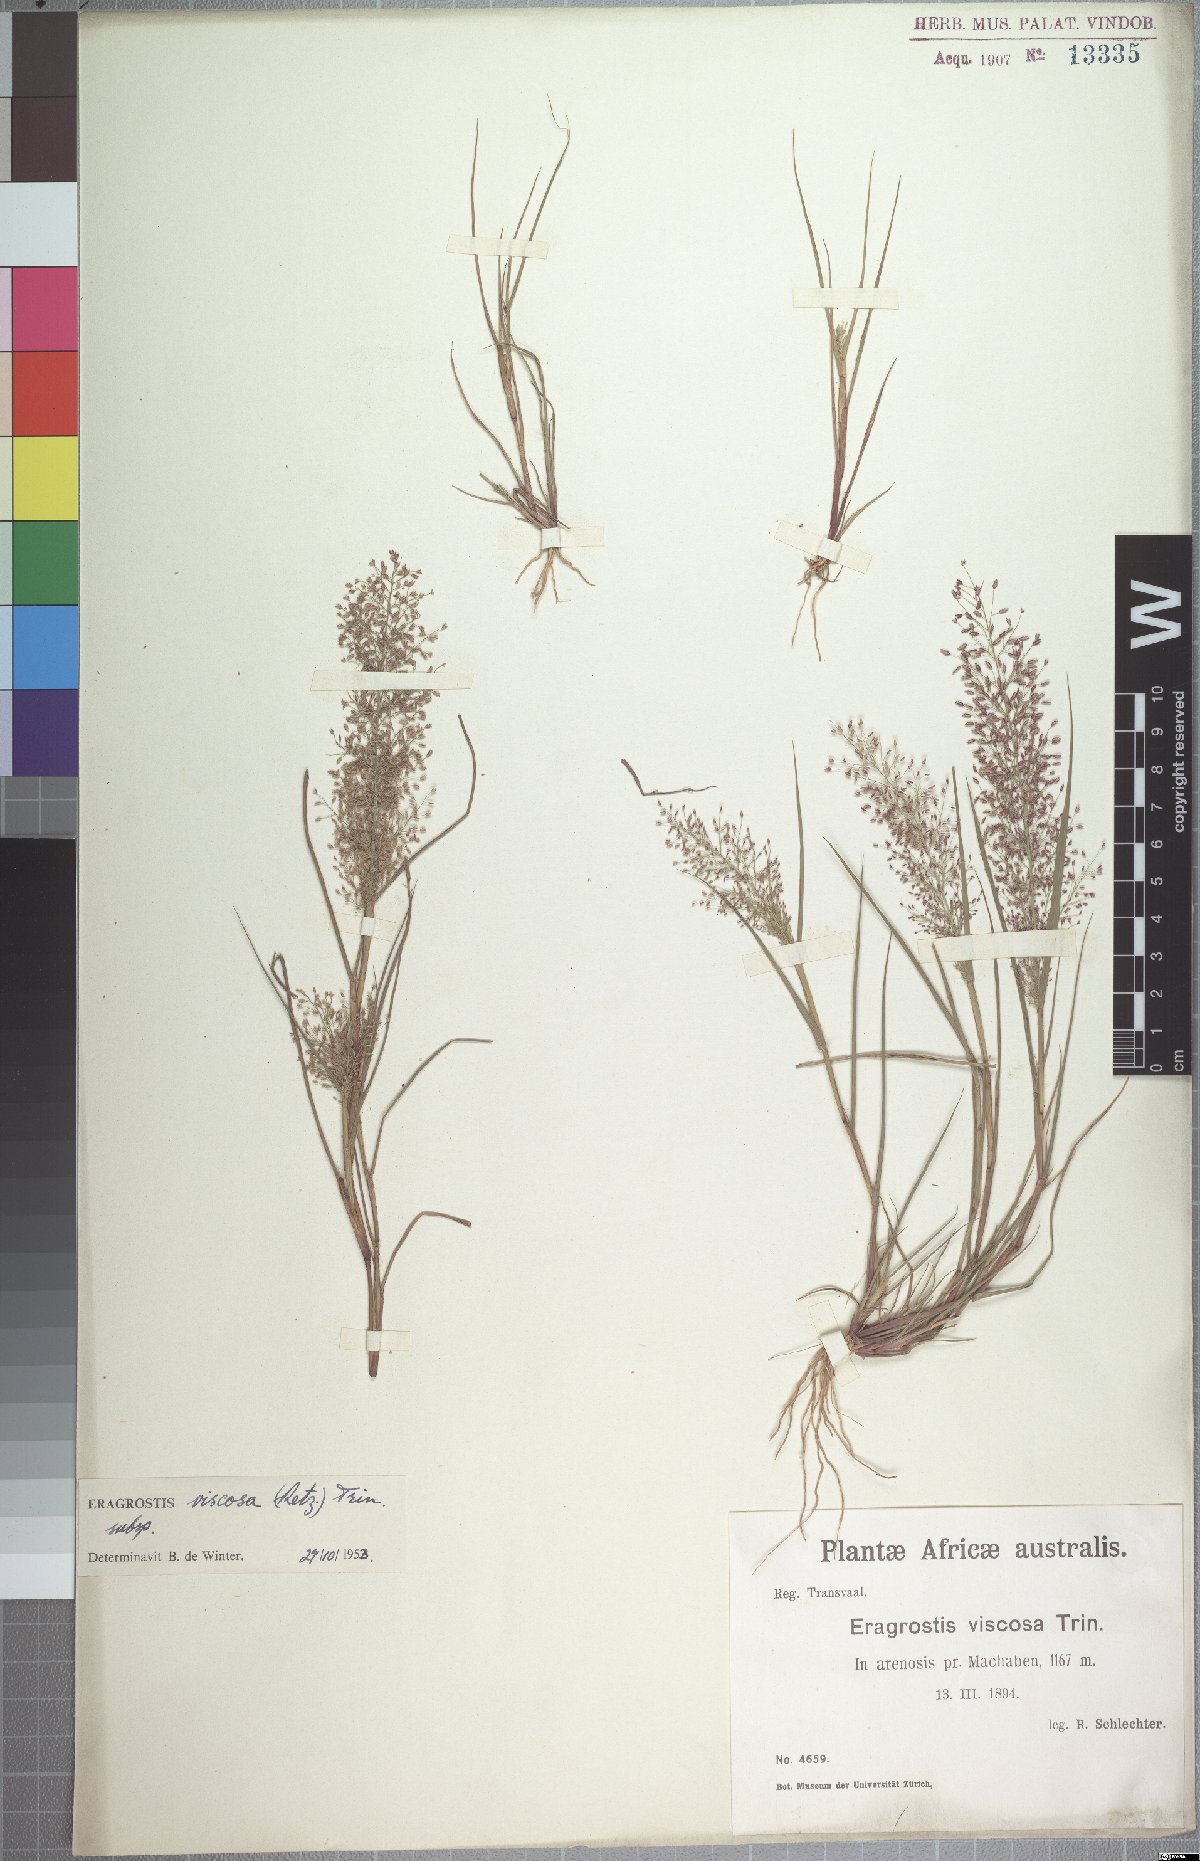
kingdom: Plantae
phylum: Tracheophyta
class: Liliopsida
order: Poales
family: Poaceae
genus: Eragrostis
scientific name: Eragrostis viscosa
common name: Sticky love grass
